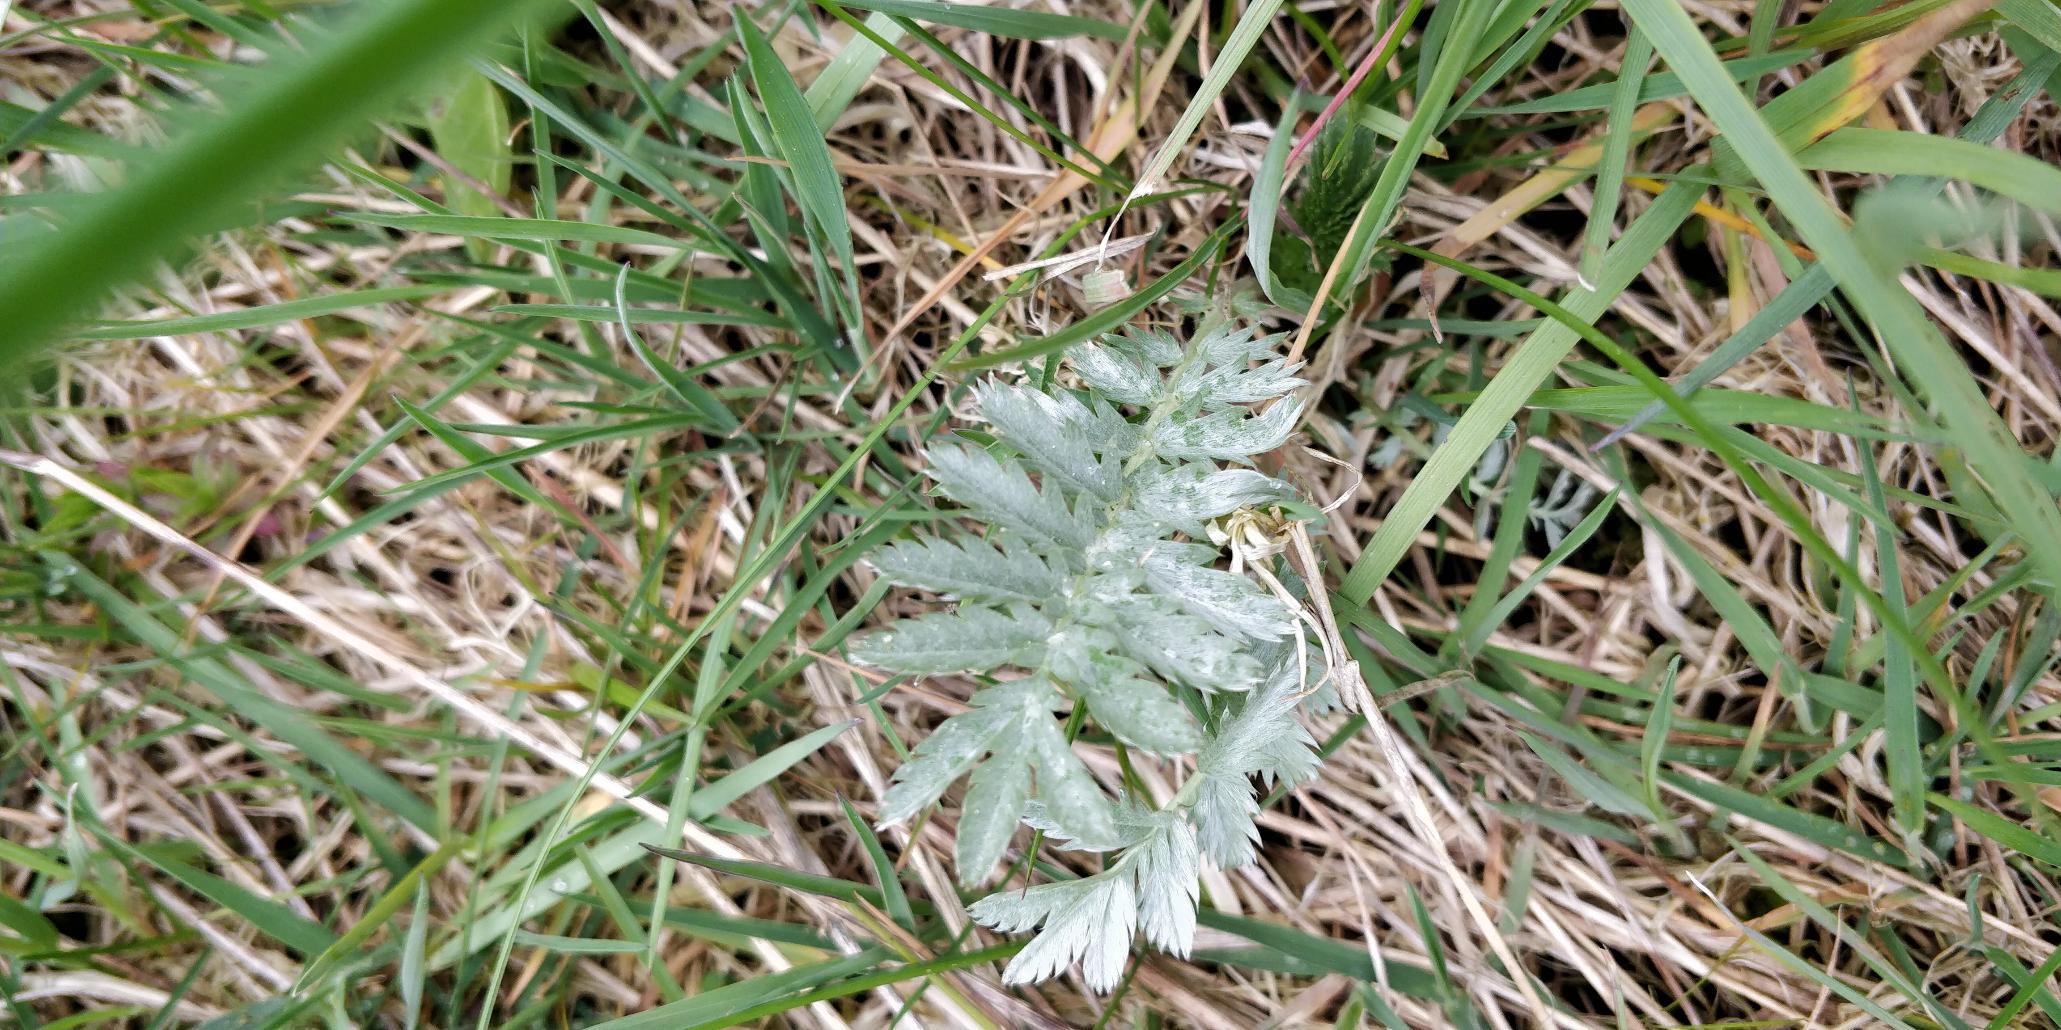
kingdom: Plantae
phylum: Tracheophyta
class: Magnoliopsida
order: Rosales
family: Rosaceae
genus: Argentina
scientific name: Argentina anserina
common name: Gåsepotentil
